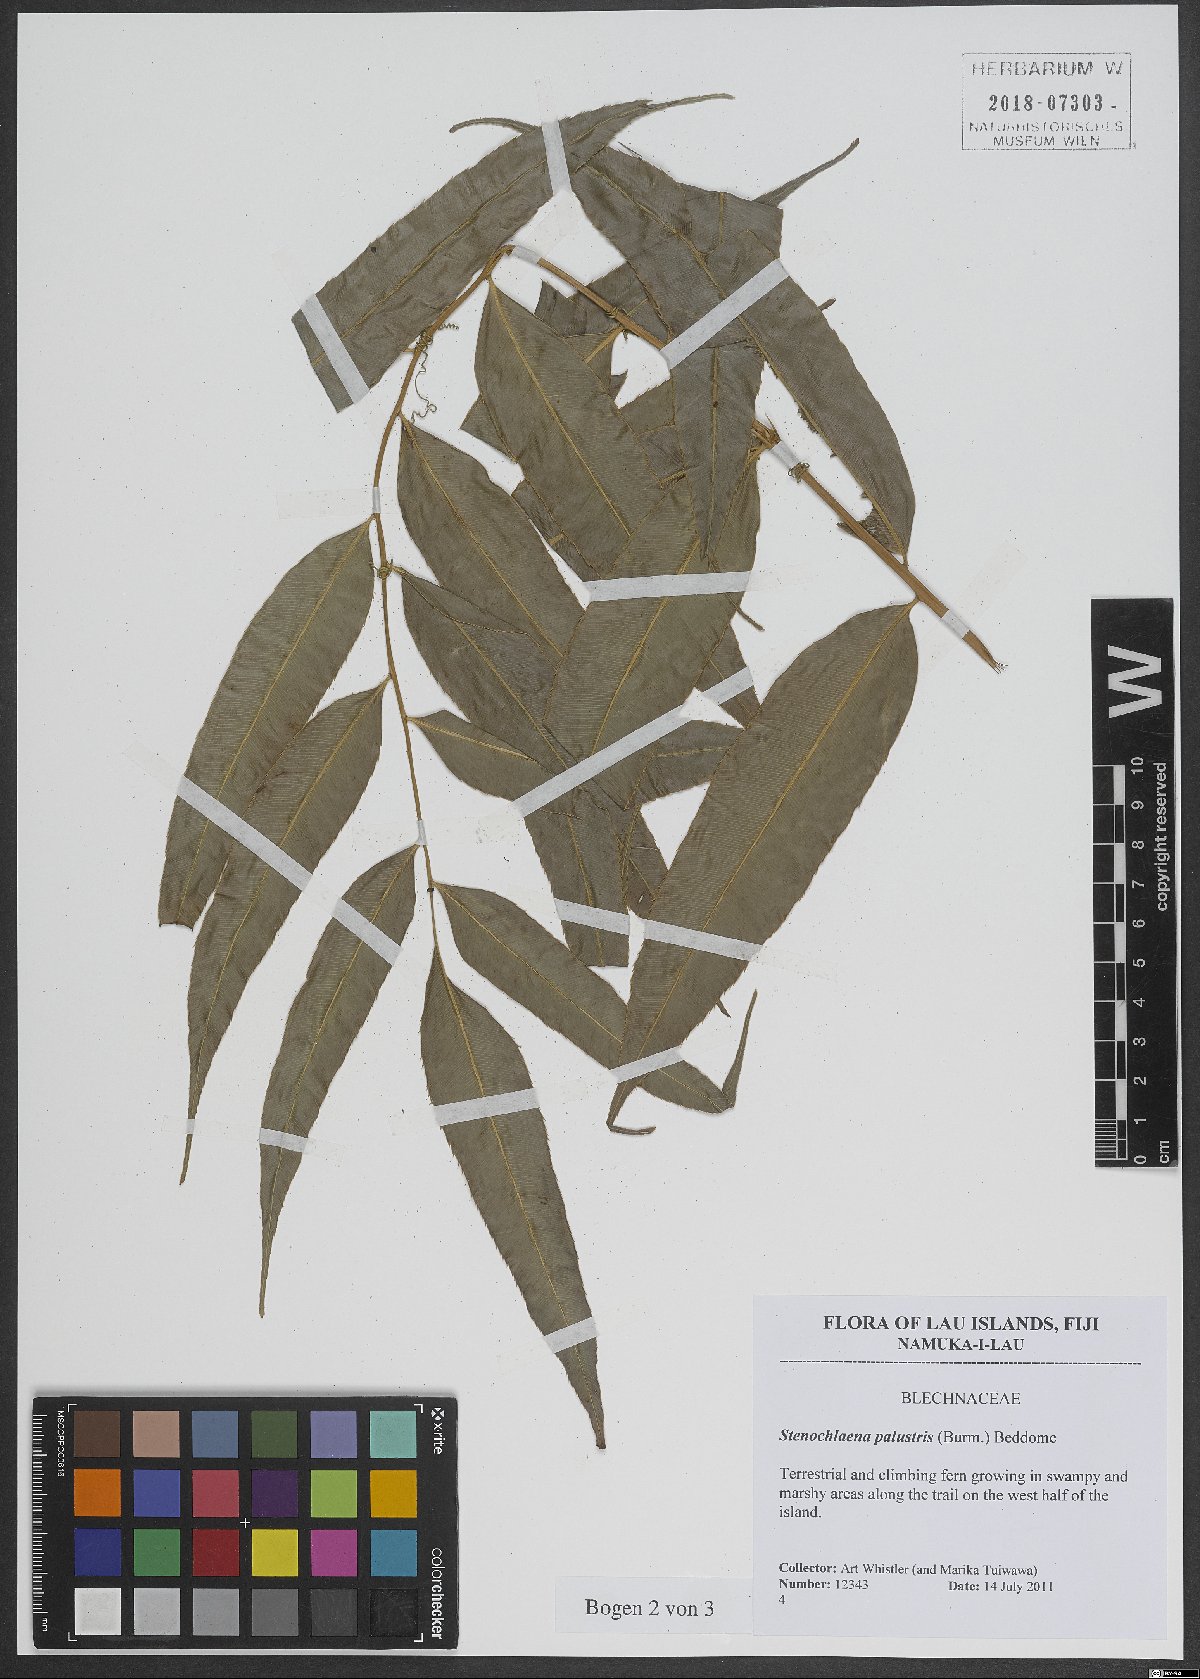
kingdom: Plantae
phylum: Tracheophyta
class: Polypodiopsida
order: Polypodiales
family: Blechnaceae
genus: Stenochlaena
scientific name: Stenochlaena palustris
